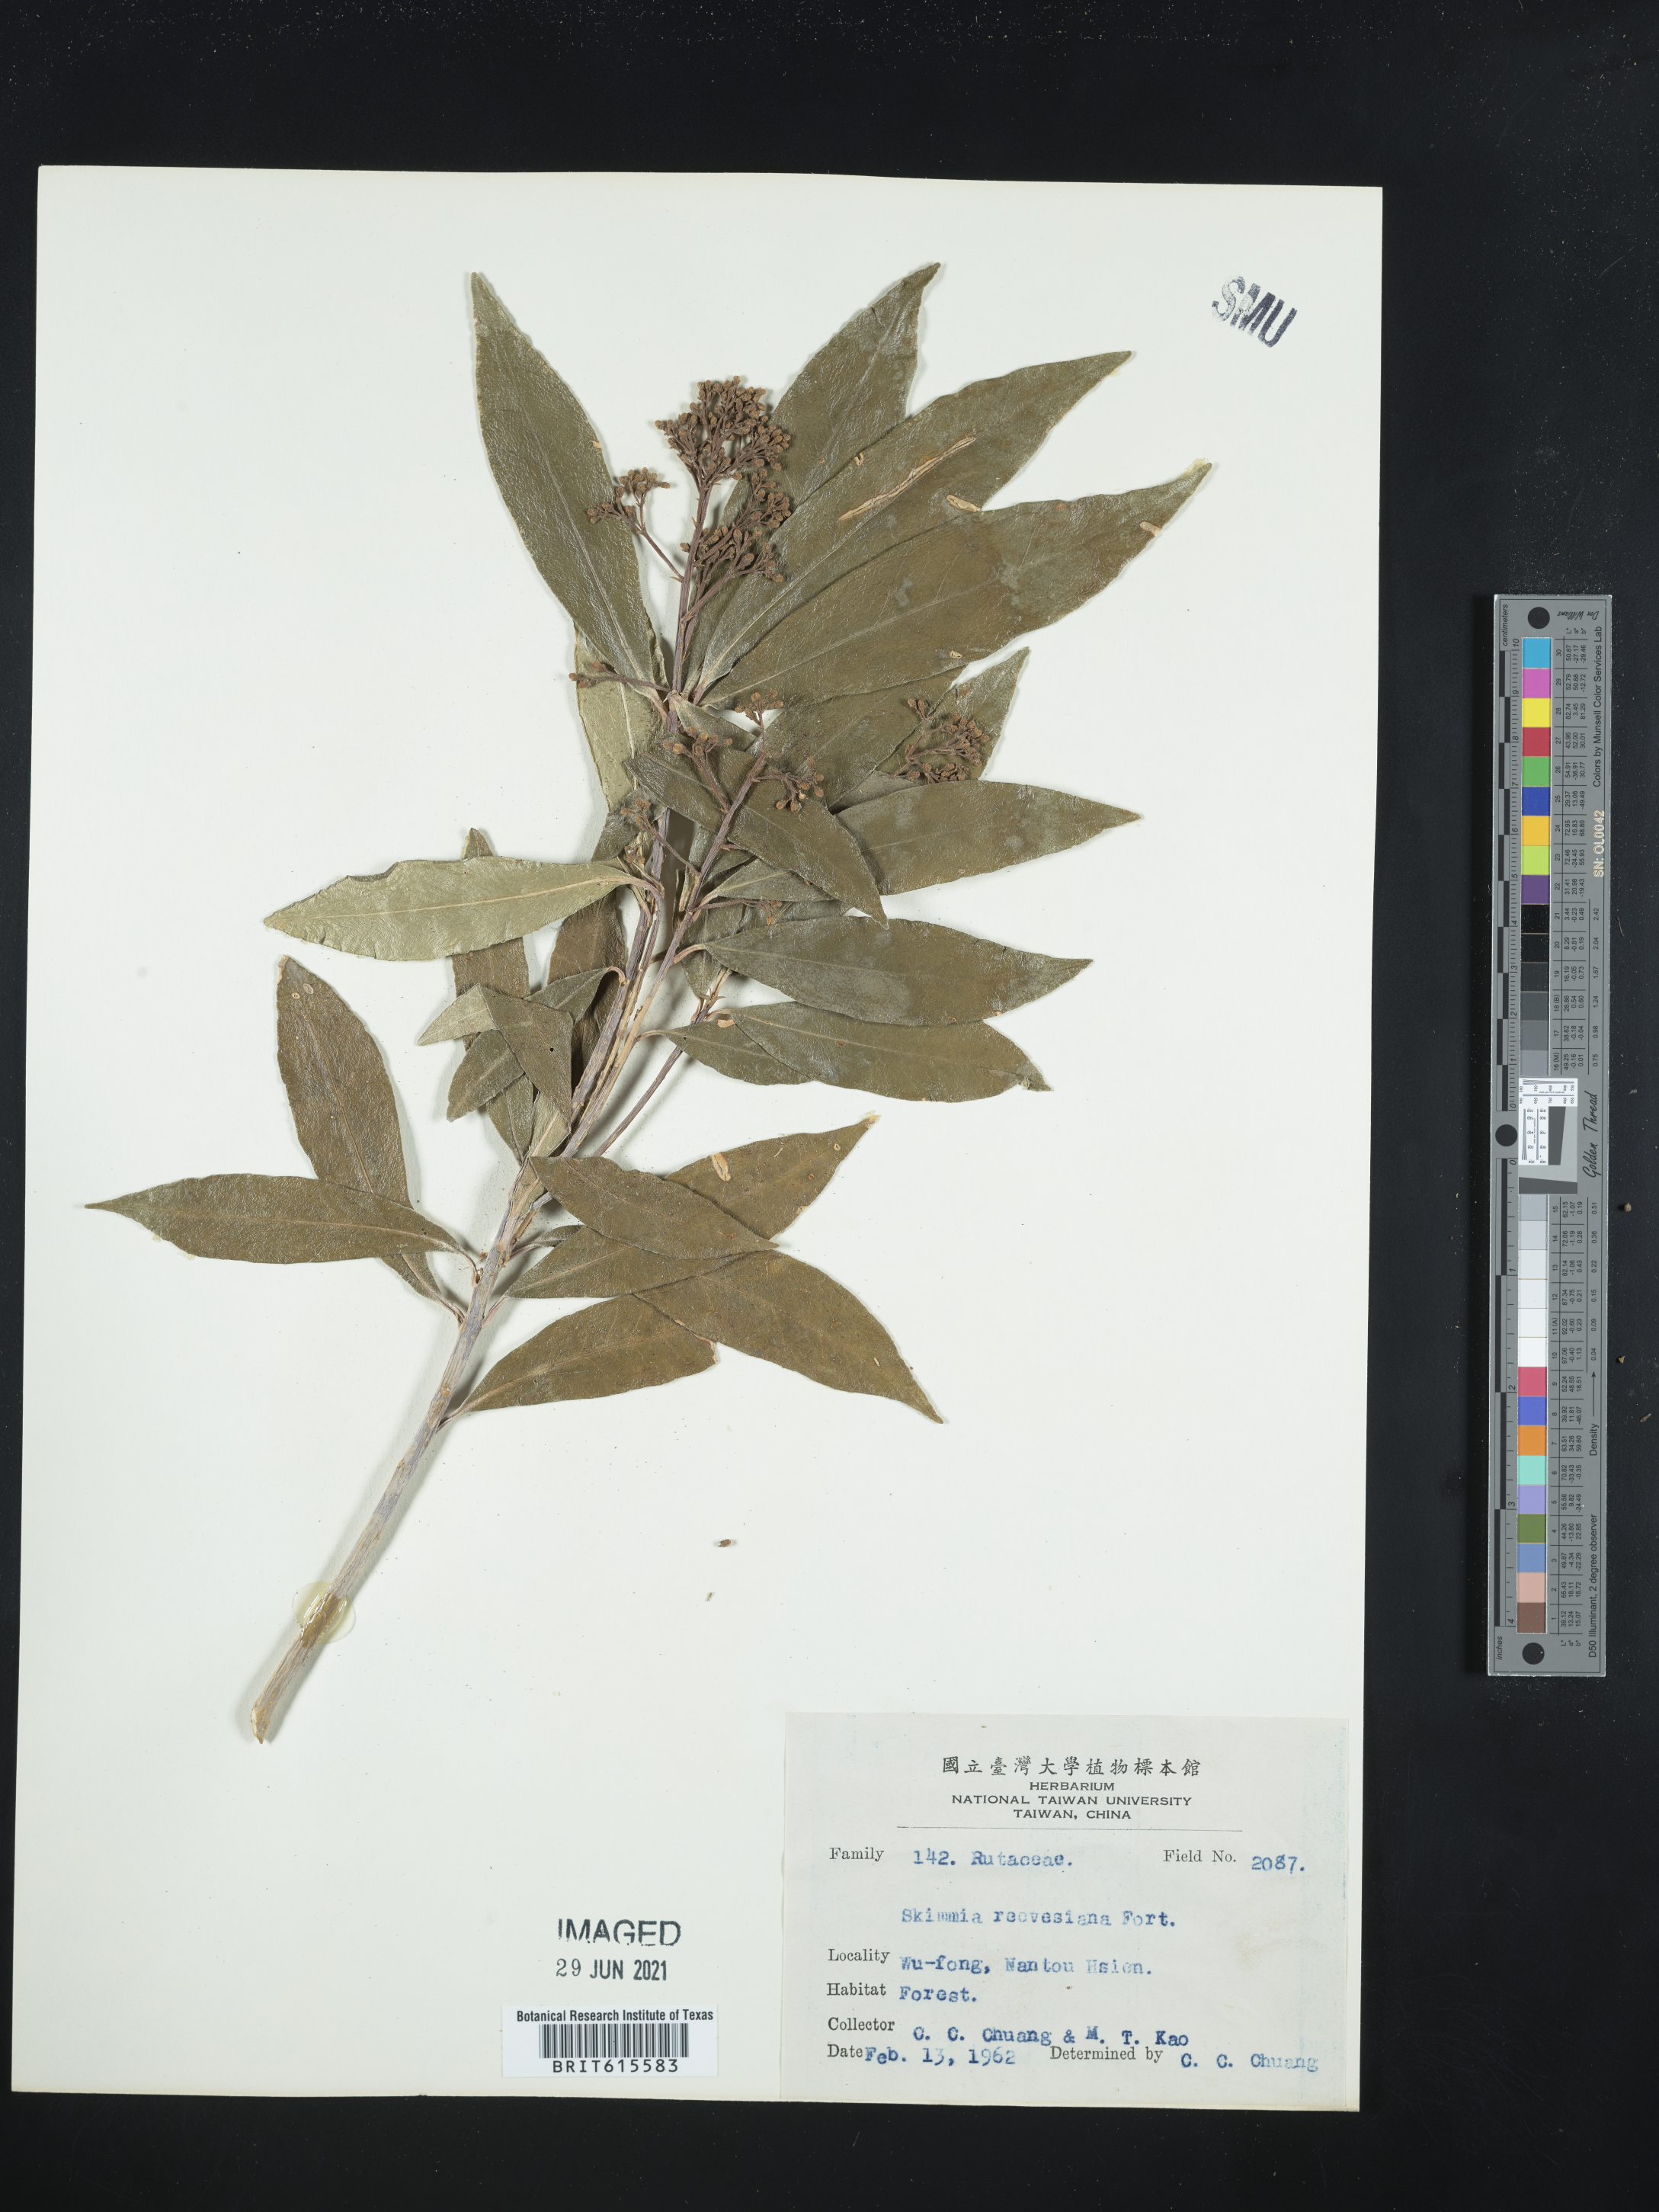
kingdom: Plantae
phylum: Tracheophyta
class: Magnoliopsida
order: Sapindales
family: Rutaceae
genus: Skimmia
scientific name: Skimmia reevesiana
